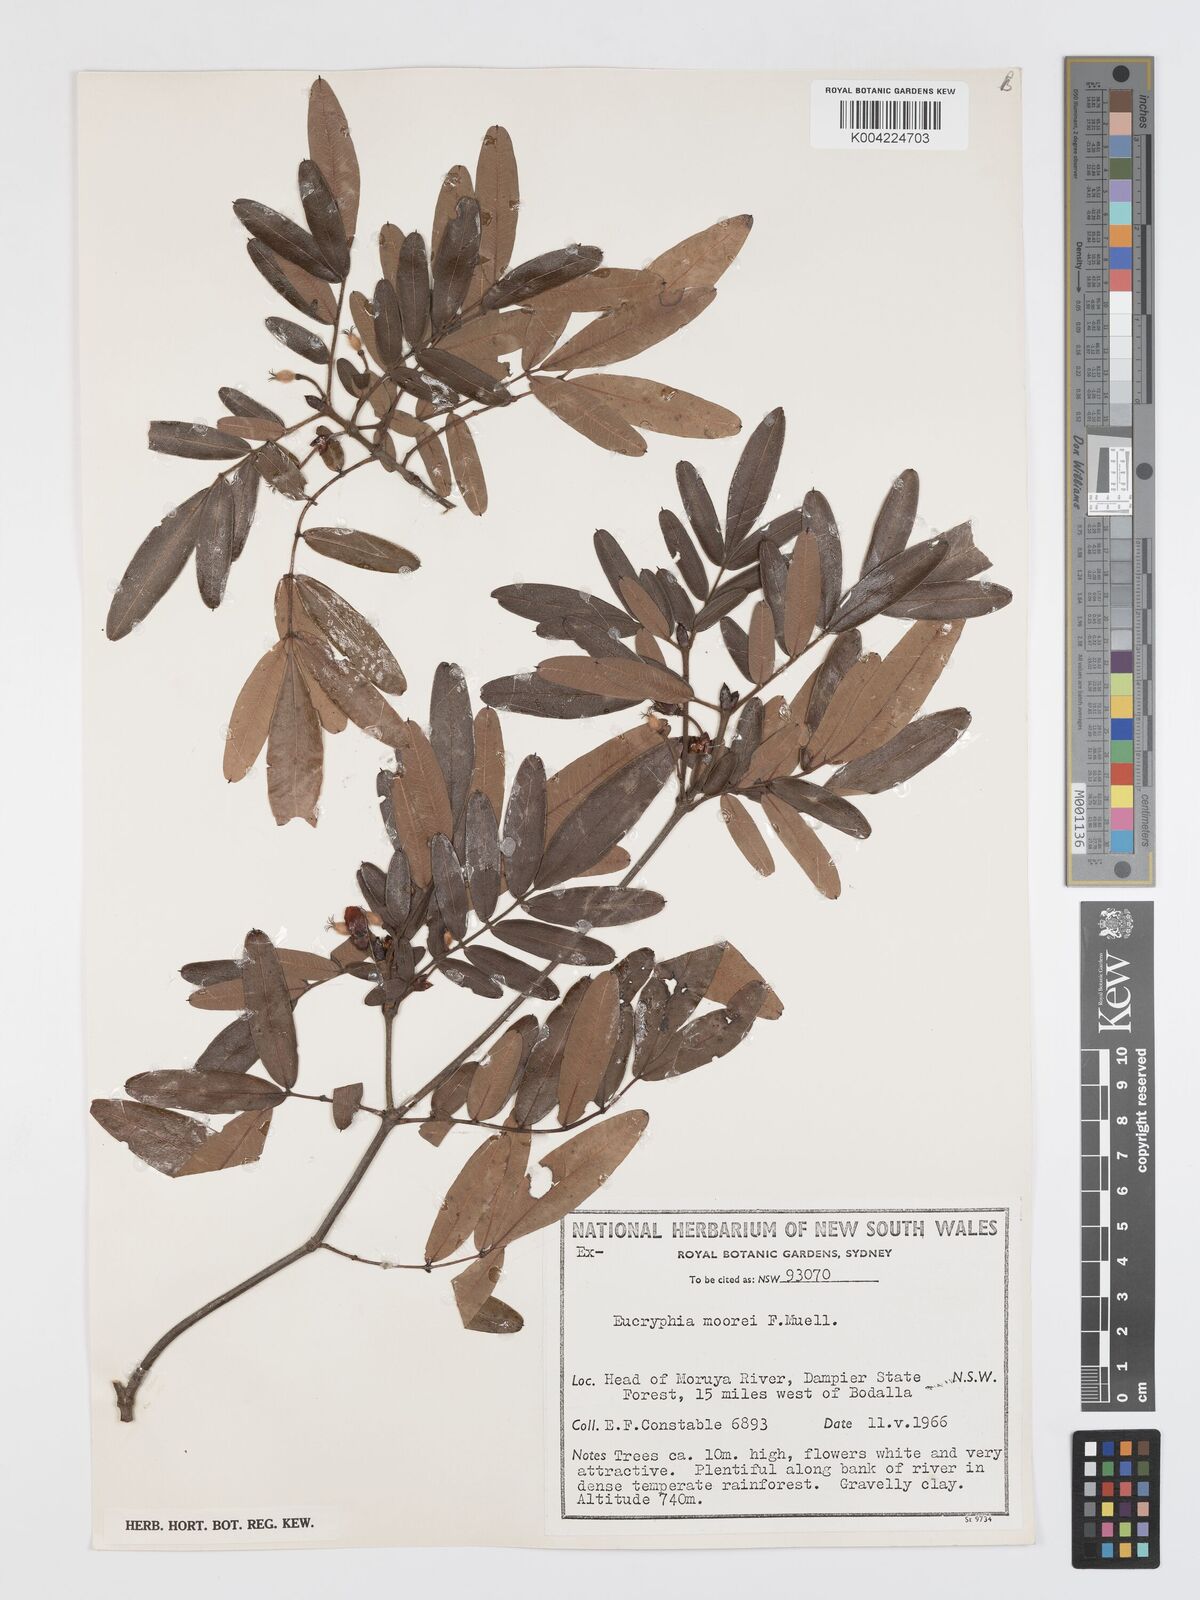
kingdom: Plantae
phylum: Tracheophyta
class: Magnoliopsida
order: Oxalidales
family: Cunoniaceae
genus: Eucryphia
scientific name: Eucryphia moorei
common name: Acacia-plum
